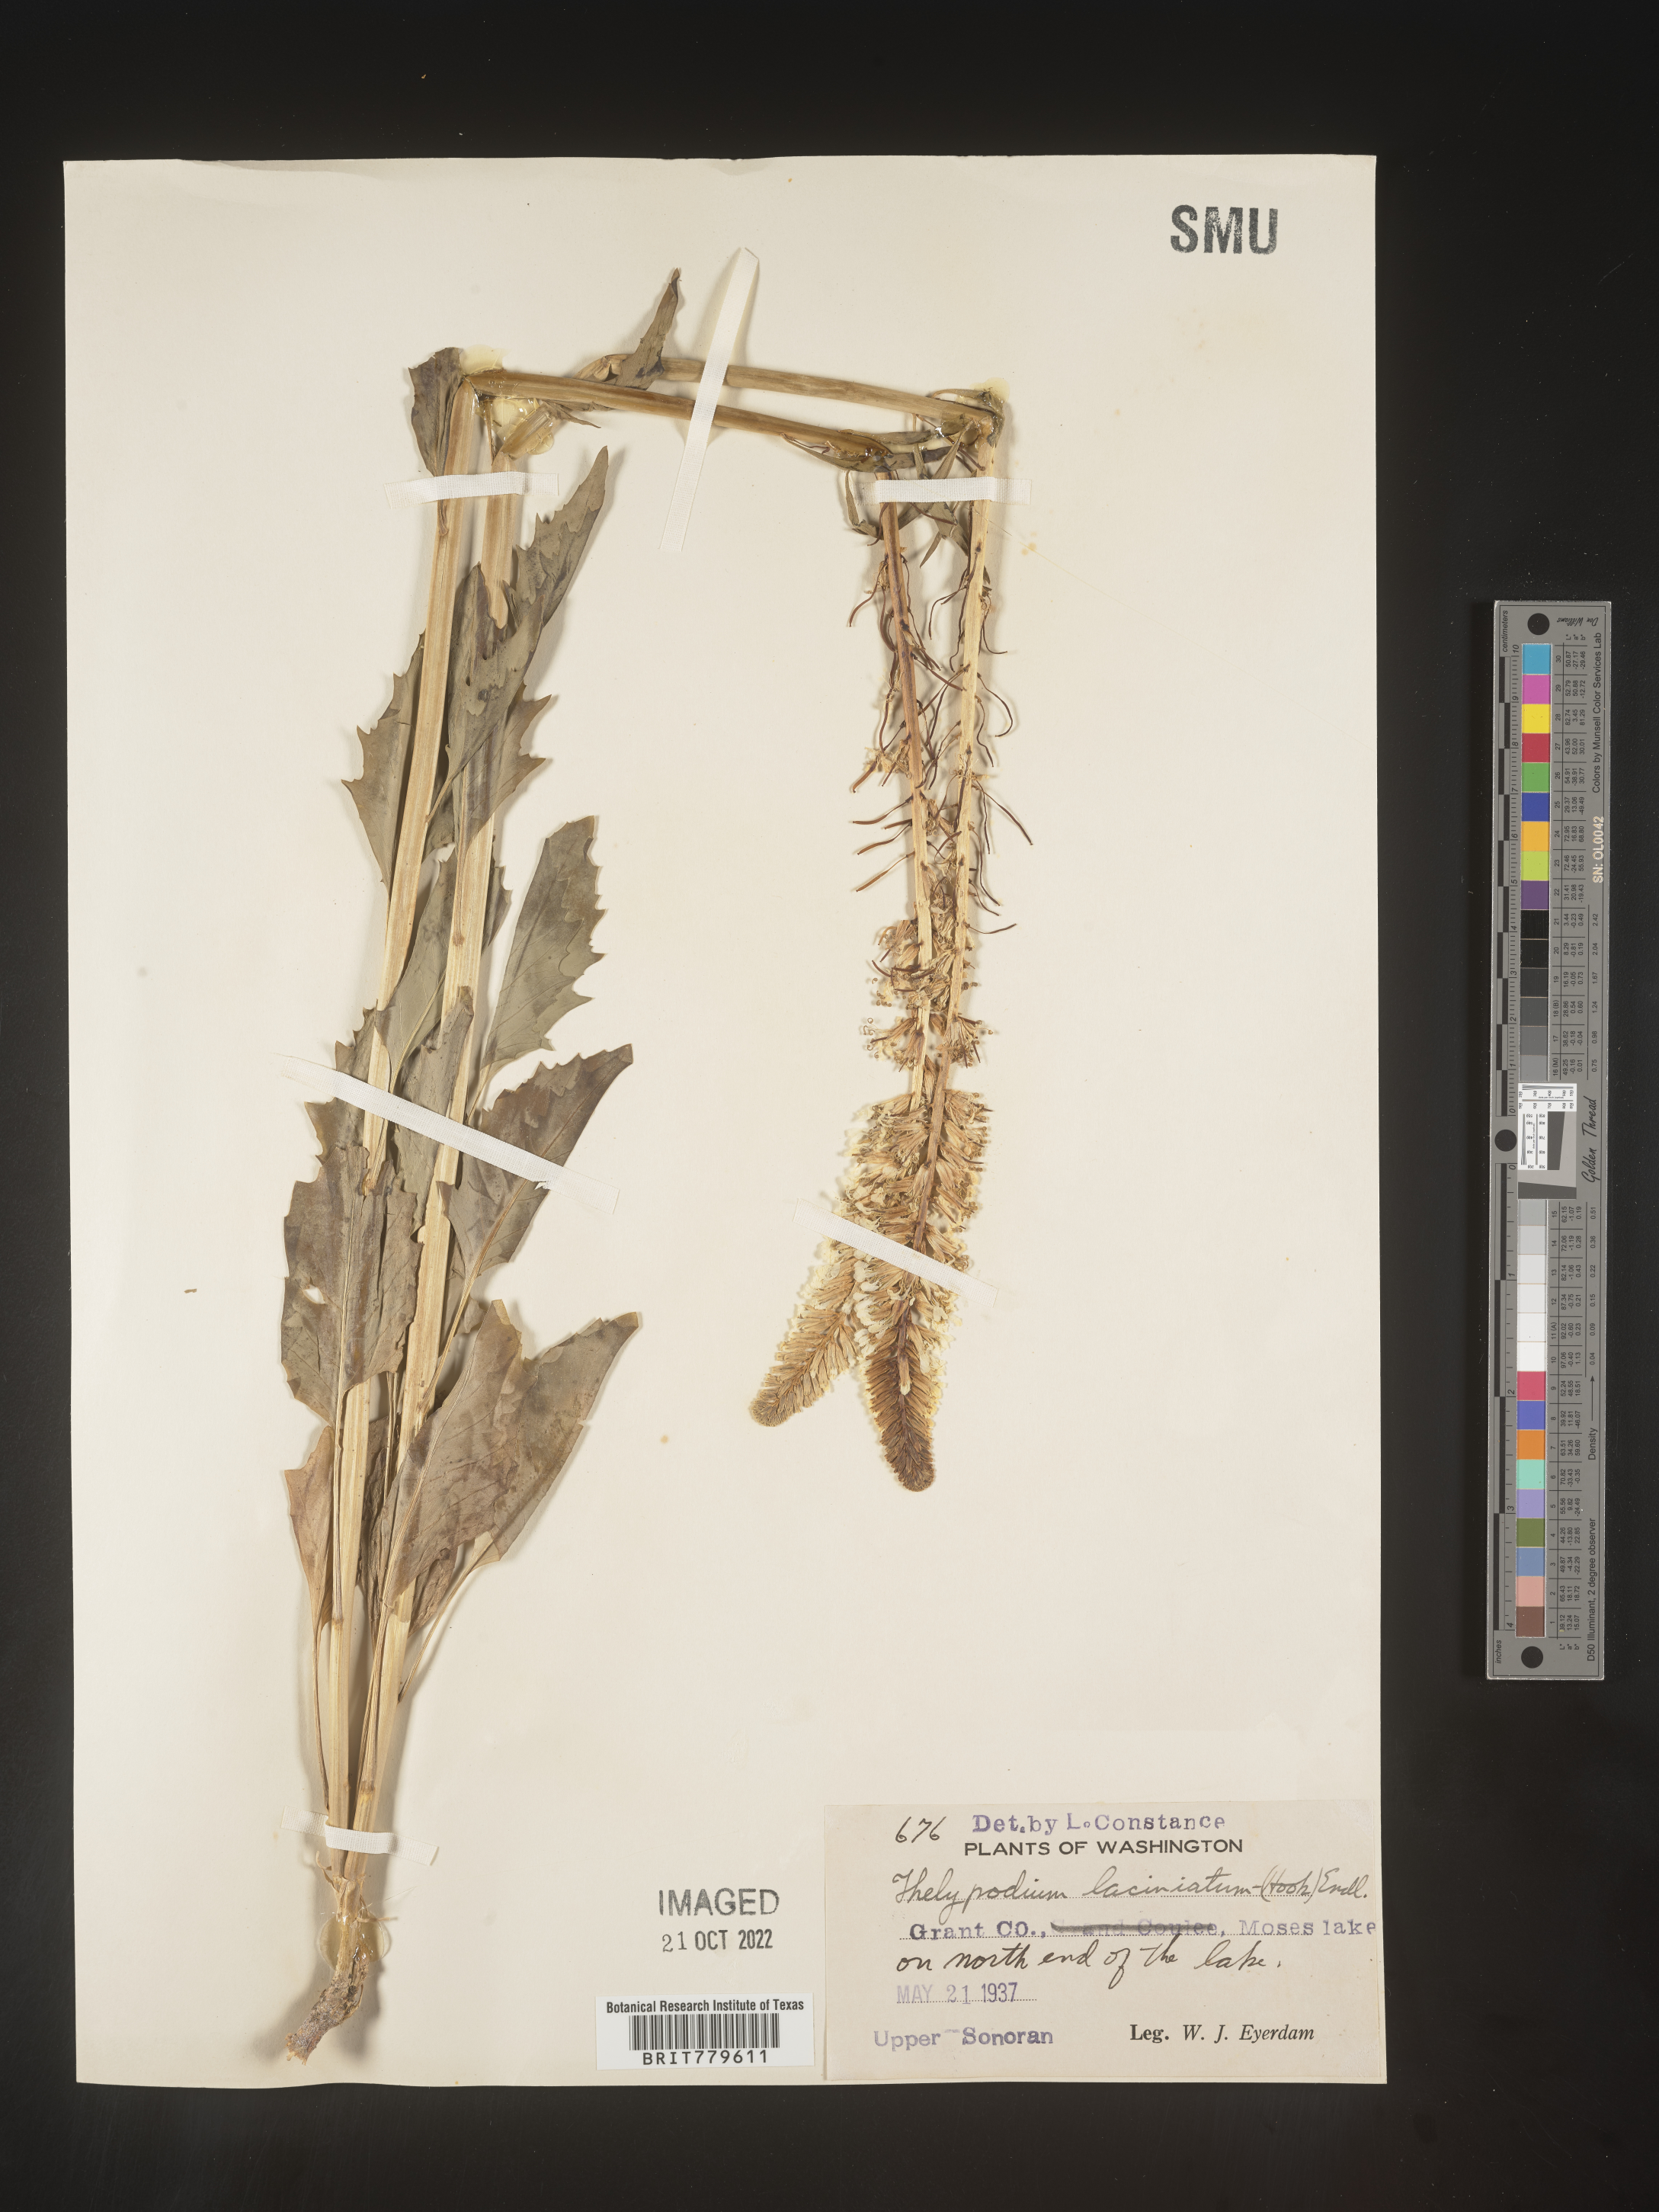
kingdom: Plantae
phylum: Tracheophyta
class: Magnoliopsida
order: Brassicales
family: Brassicaceae
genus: Thelypodium
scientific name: Thelypodium
